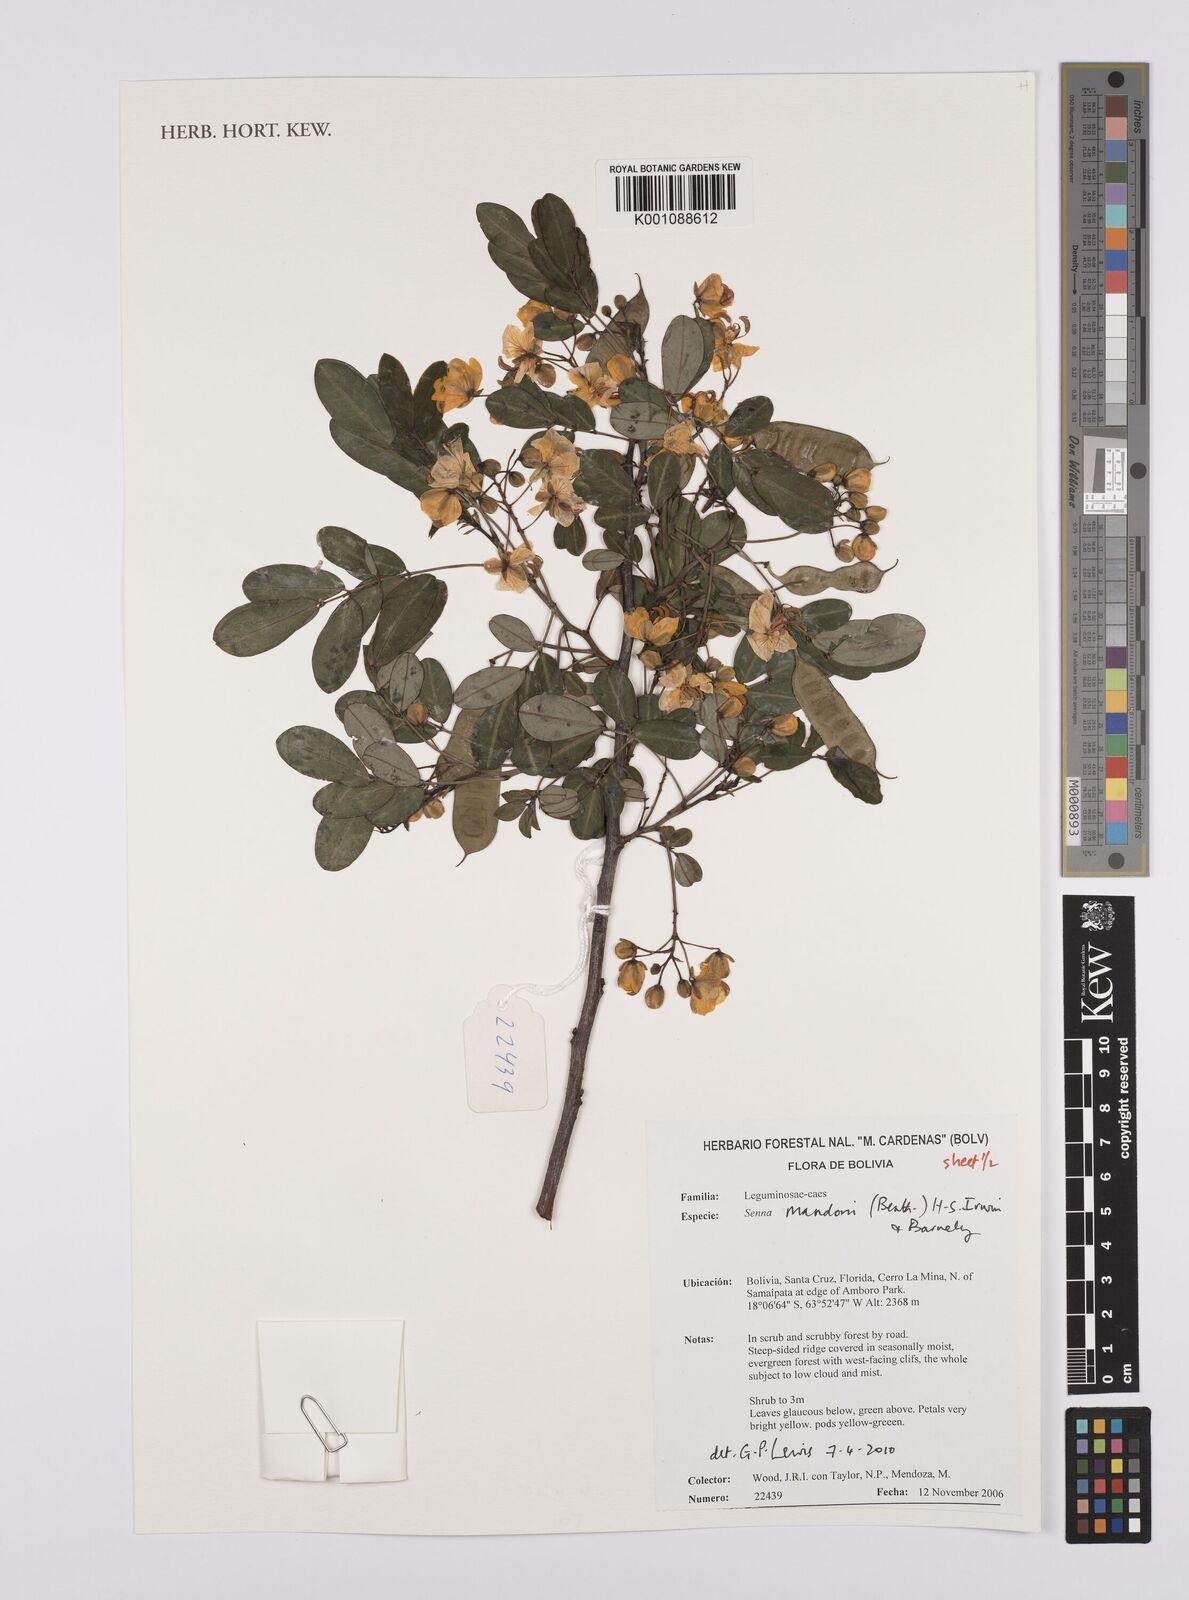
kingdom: Plantae
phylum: Tracheophyta
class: Magnoliopsida
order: Fabales
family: Fabaceae
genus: Senna
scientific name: Senna mandonii
